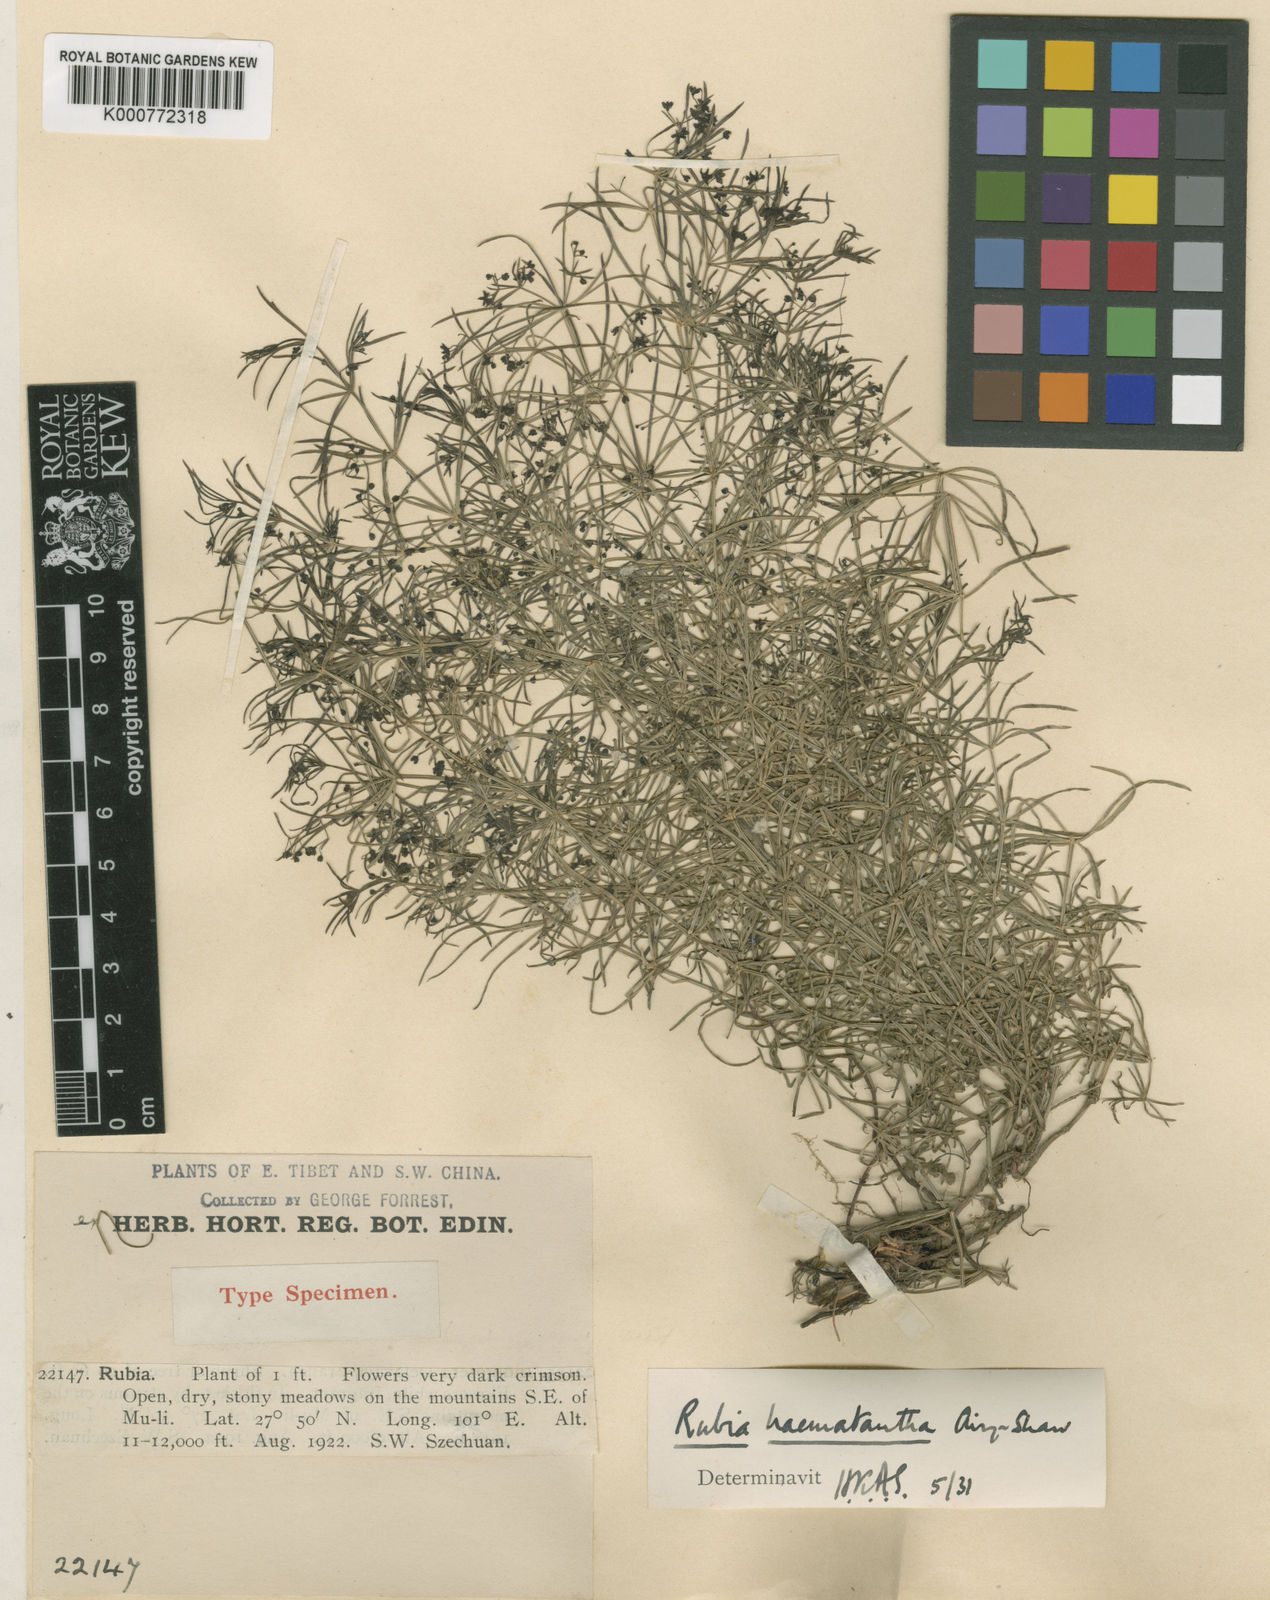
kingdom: Plantae
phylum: Tracheophyta
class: Magnoliopsida
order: Gentianales
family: Rubiaceae
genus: Rubia
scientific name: Rubia haematantha
